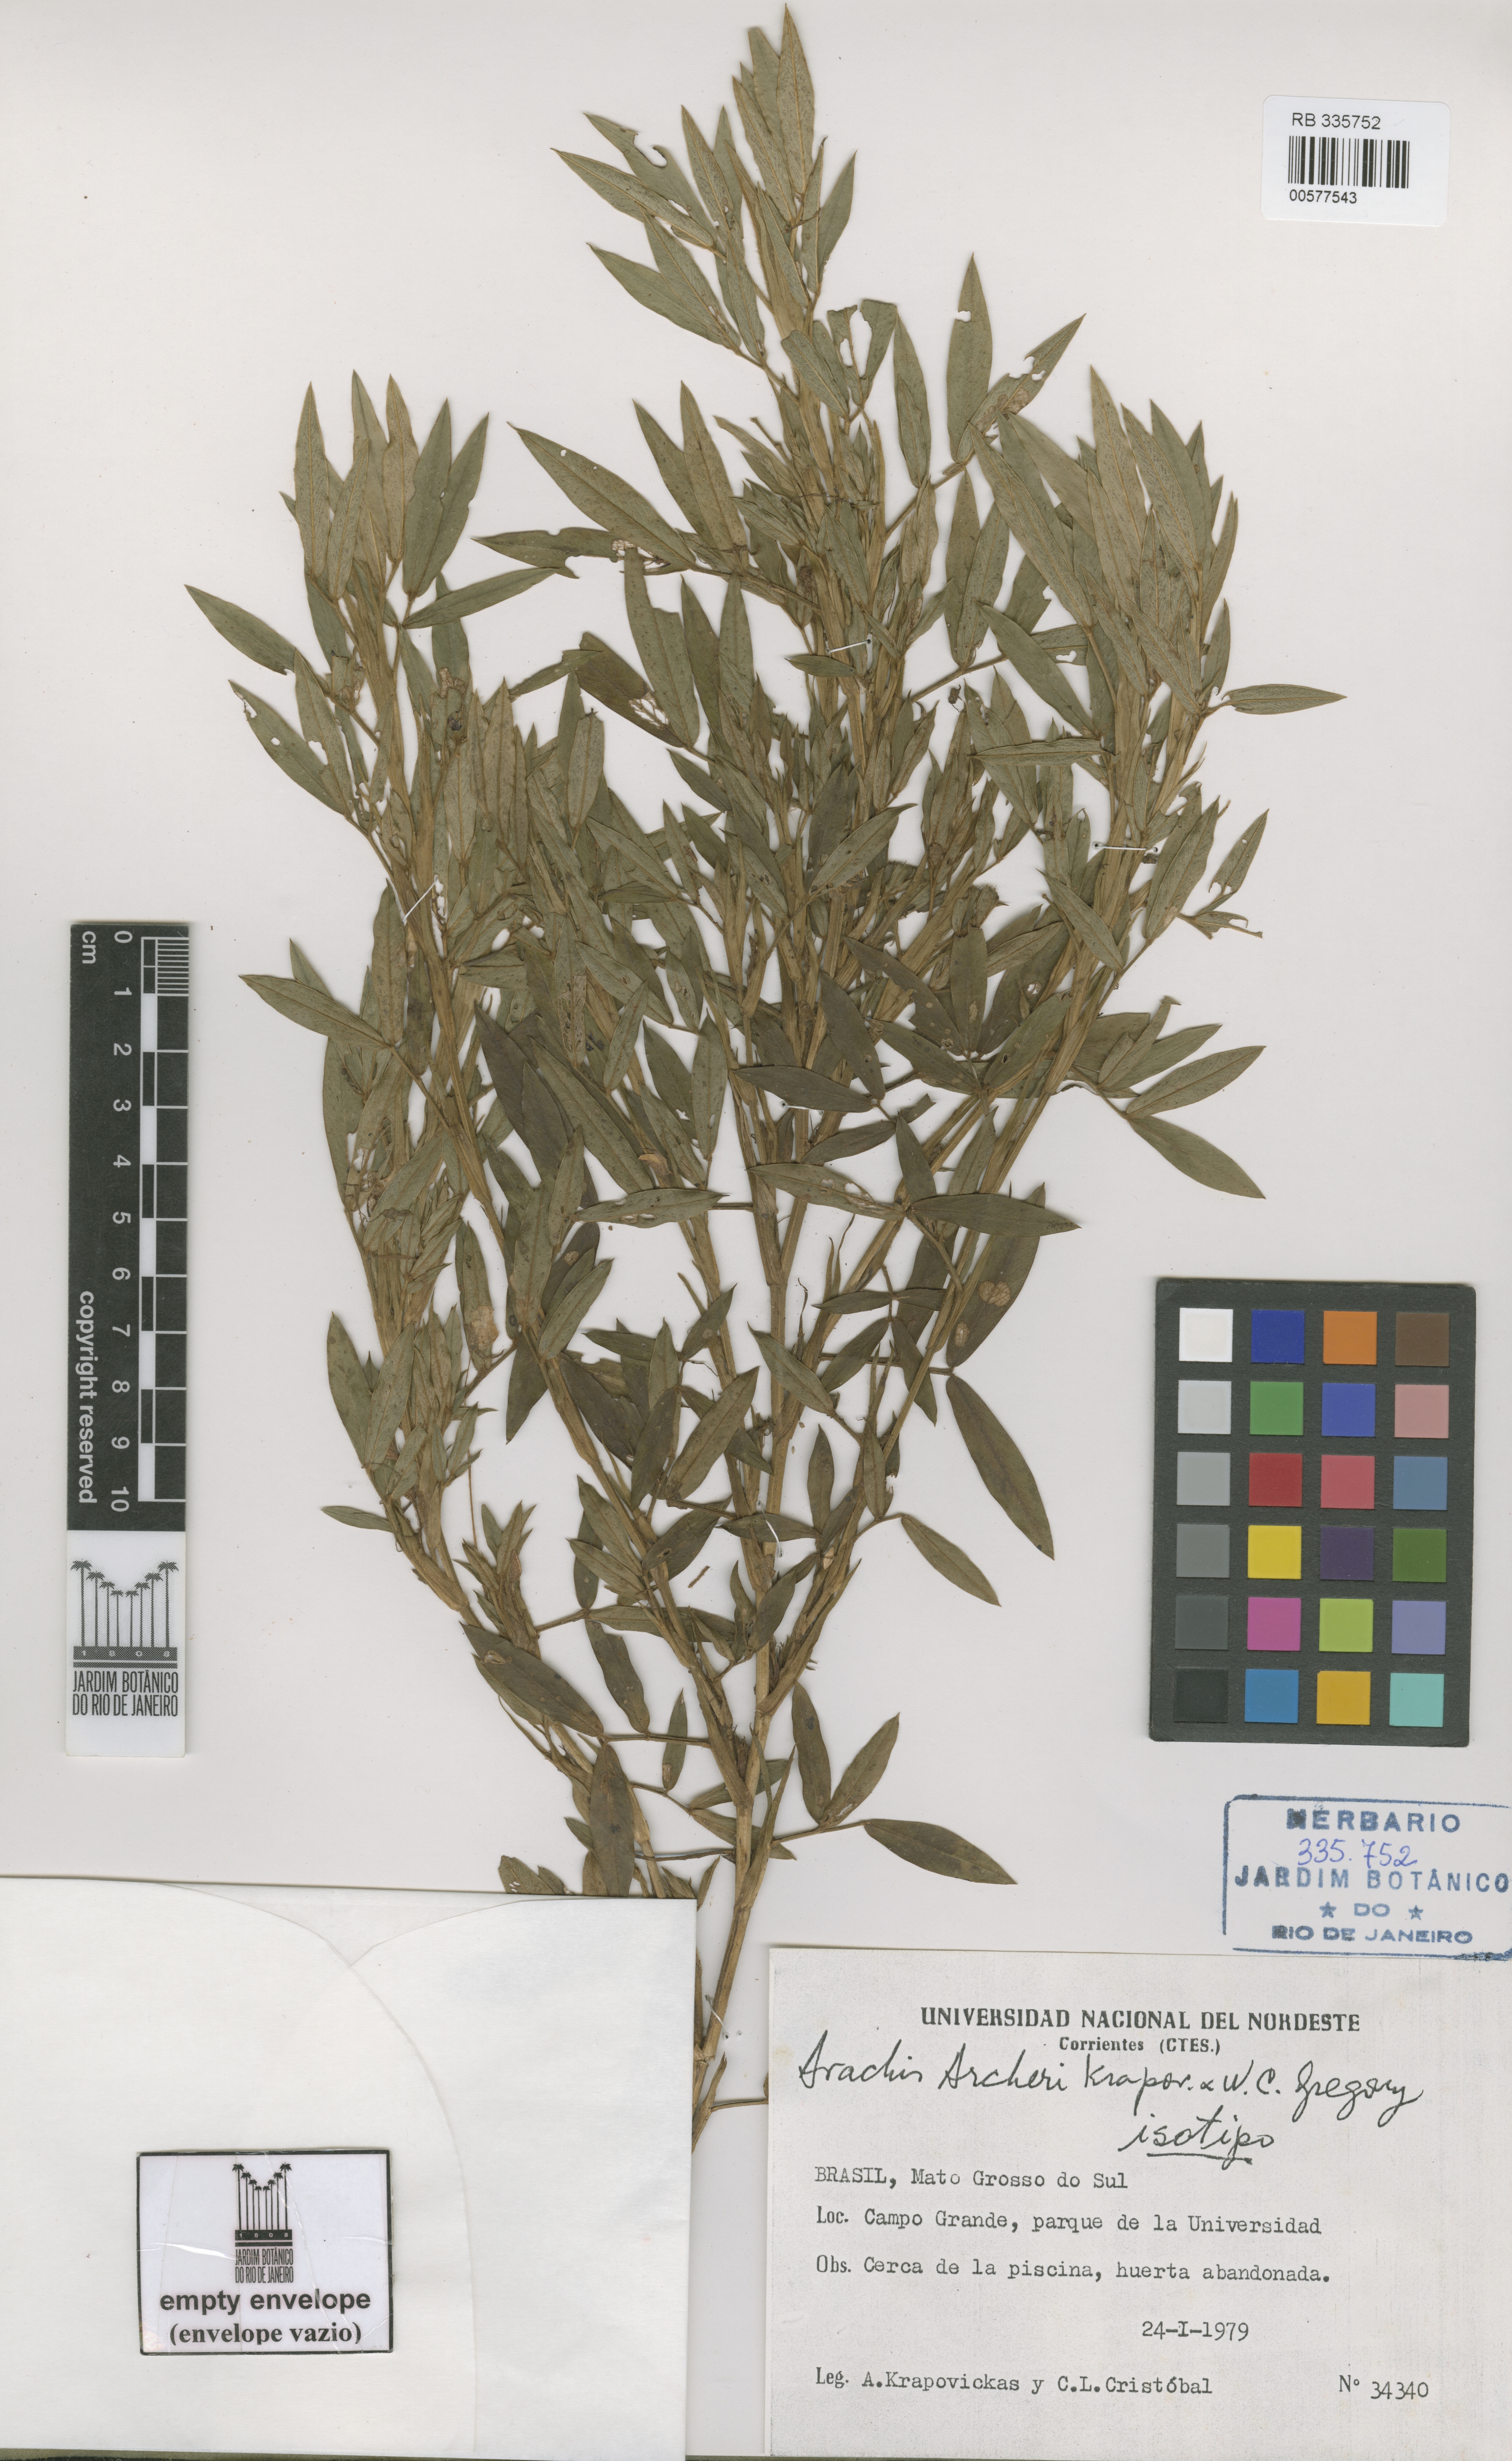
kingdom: Plantae
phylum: Tracheophyta
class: Magnoliopsida
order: Fabales
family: Fabaceae
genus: Arachis
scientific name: Arachis archeri
